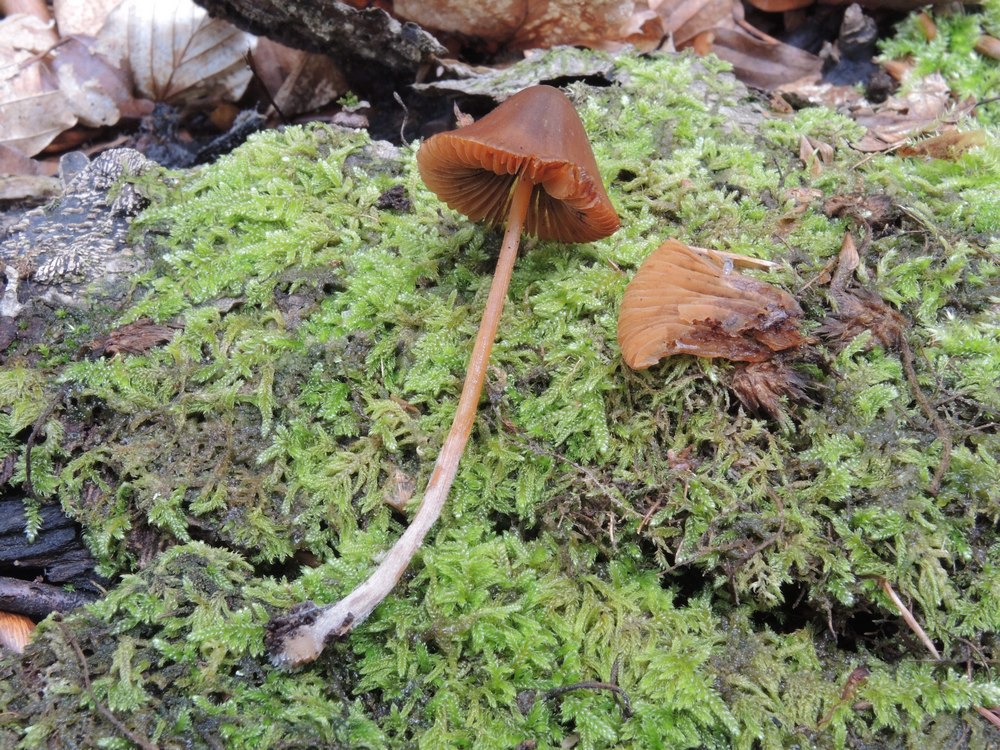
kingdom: Fungi
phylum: Basidiomycota
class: Agaricomycetes
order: Agaricales
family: Bolbitiaceae
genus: Conocybe
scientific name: Conocybe
